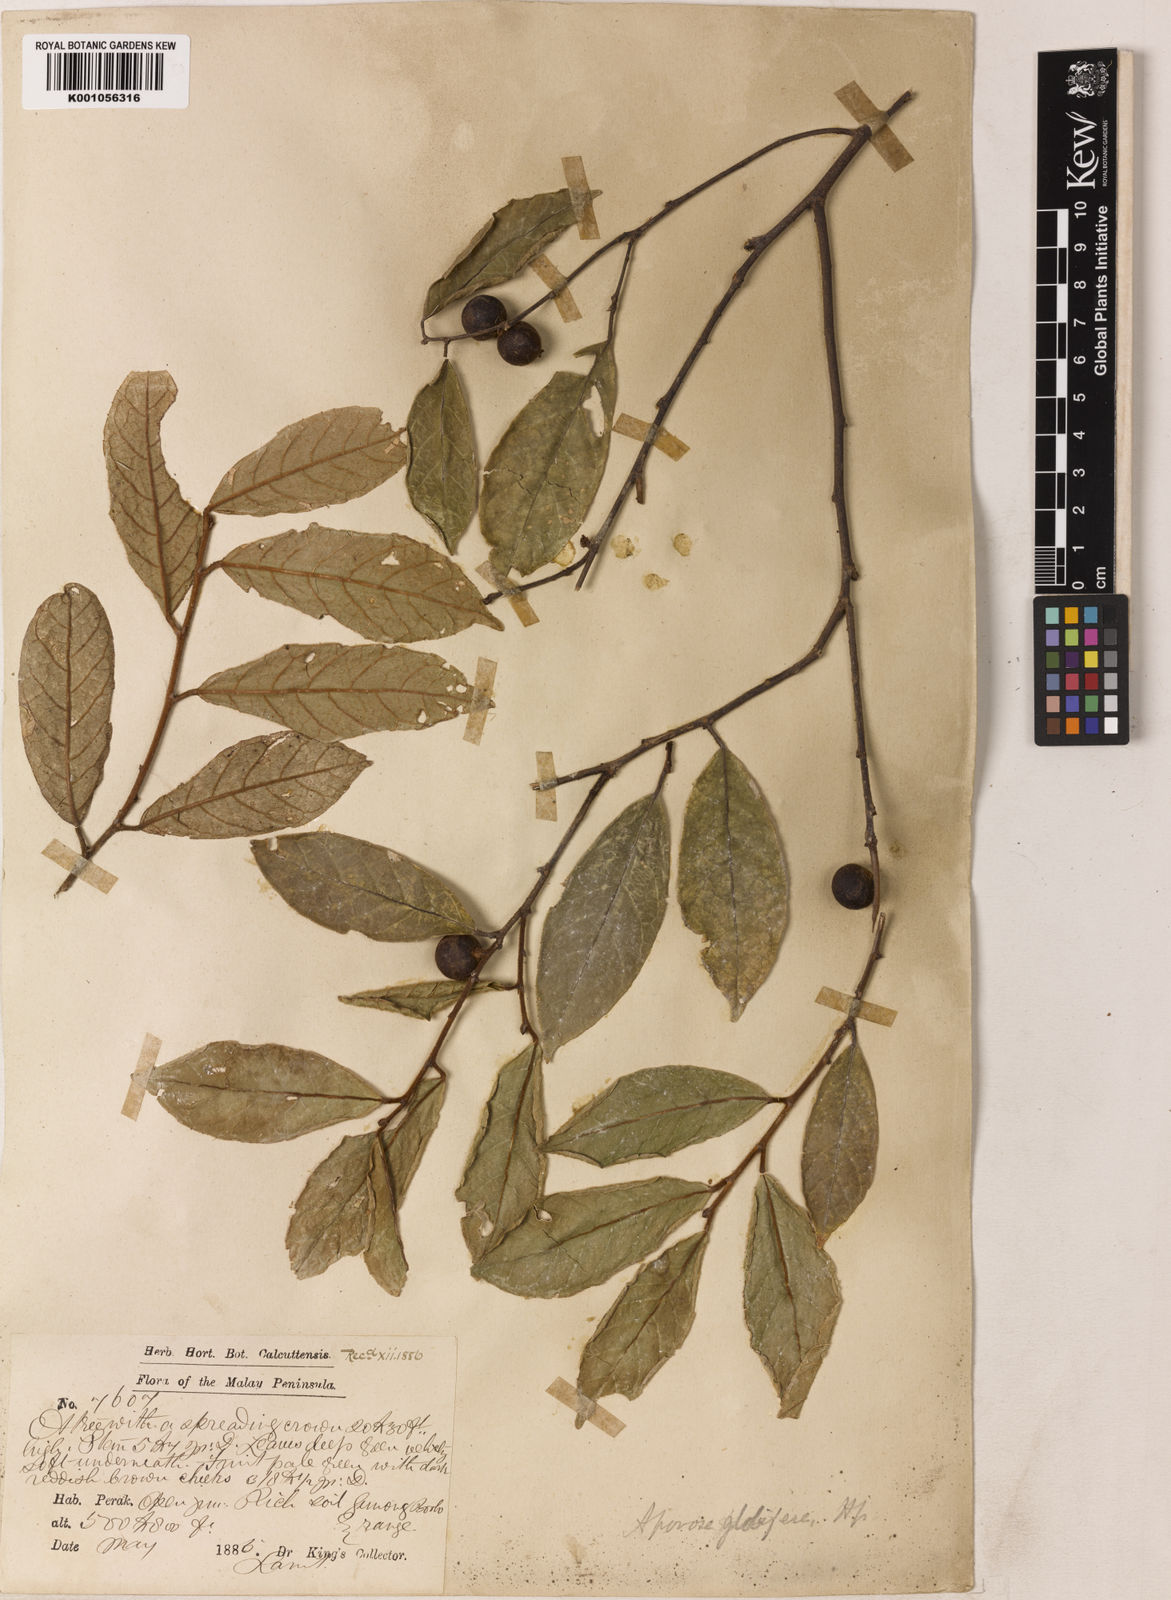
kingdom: Plantae
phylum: Tracheophyta
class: Magnoliopsida
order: Malpighiales
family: Phyllanthaceae
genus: Aporosa
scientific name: Aporosa globifera
